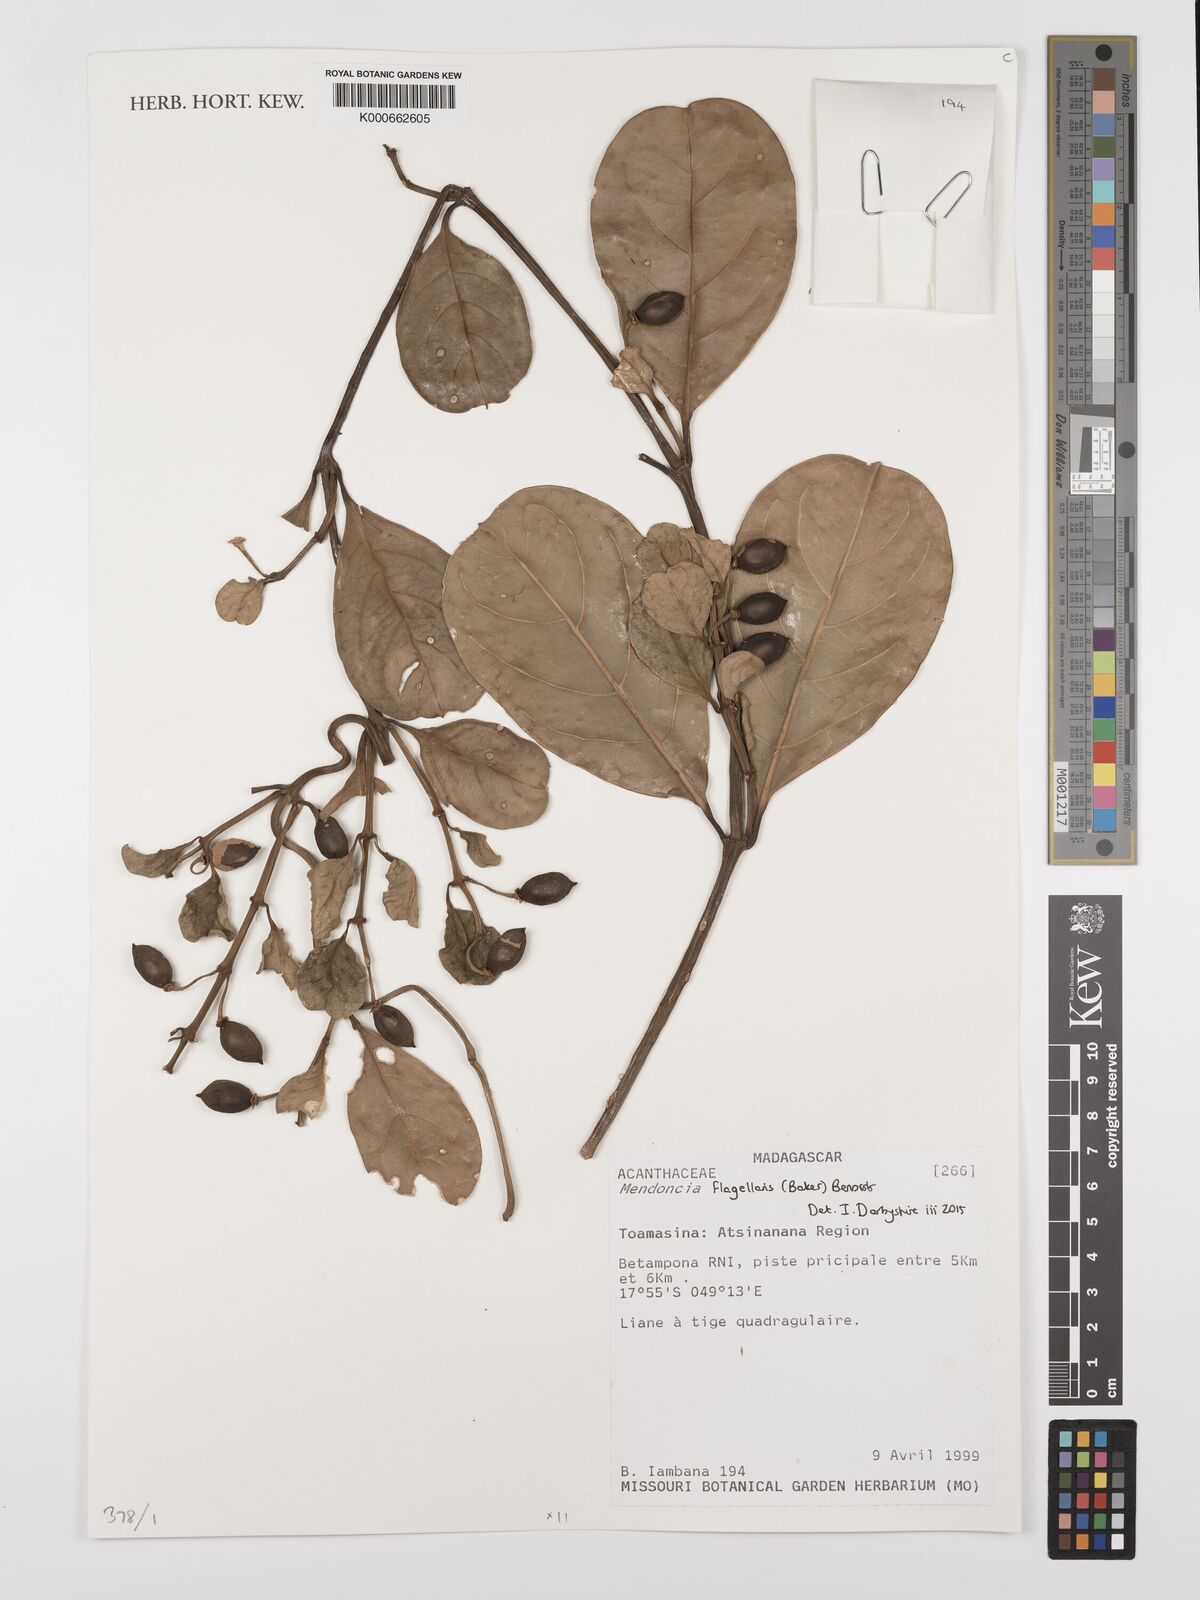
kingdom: Plantae
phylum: Tracheophyta
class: Magnoliopsida
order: Lamiales
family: Acanthaceae
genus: Mendoncia
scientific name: Mendoncia flagellaris
